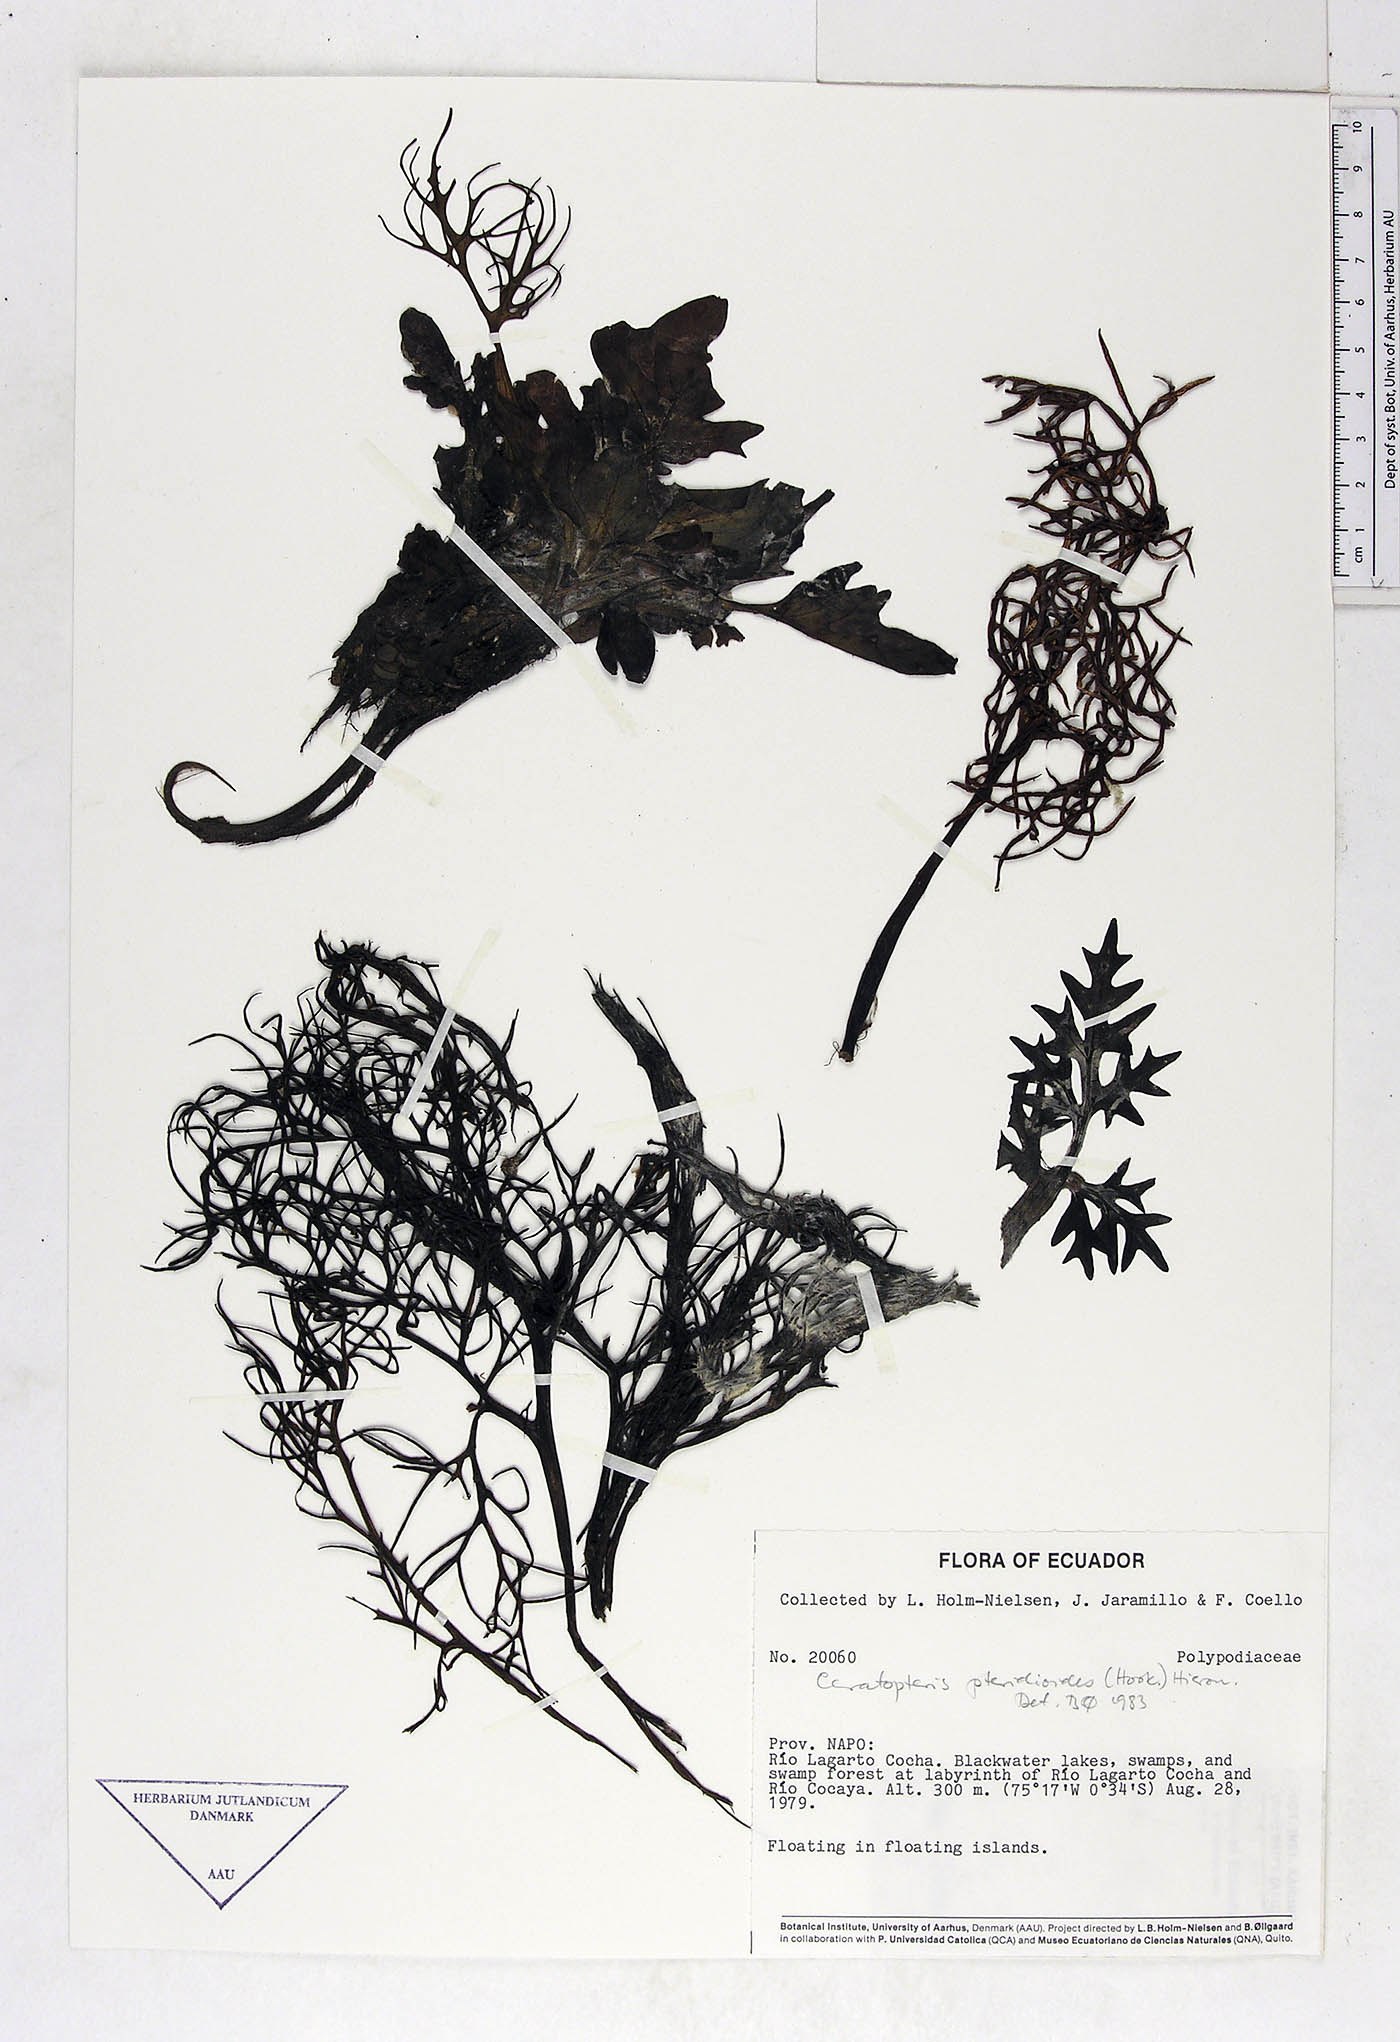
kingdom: Plantae
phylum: Tracheophyta
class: Polypodiopsida
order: Polypodiales
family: Pteridaceae
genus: Ceratopteris
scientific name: Ceratopteris pteridoides
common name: Floating fern
